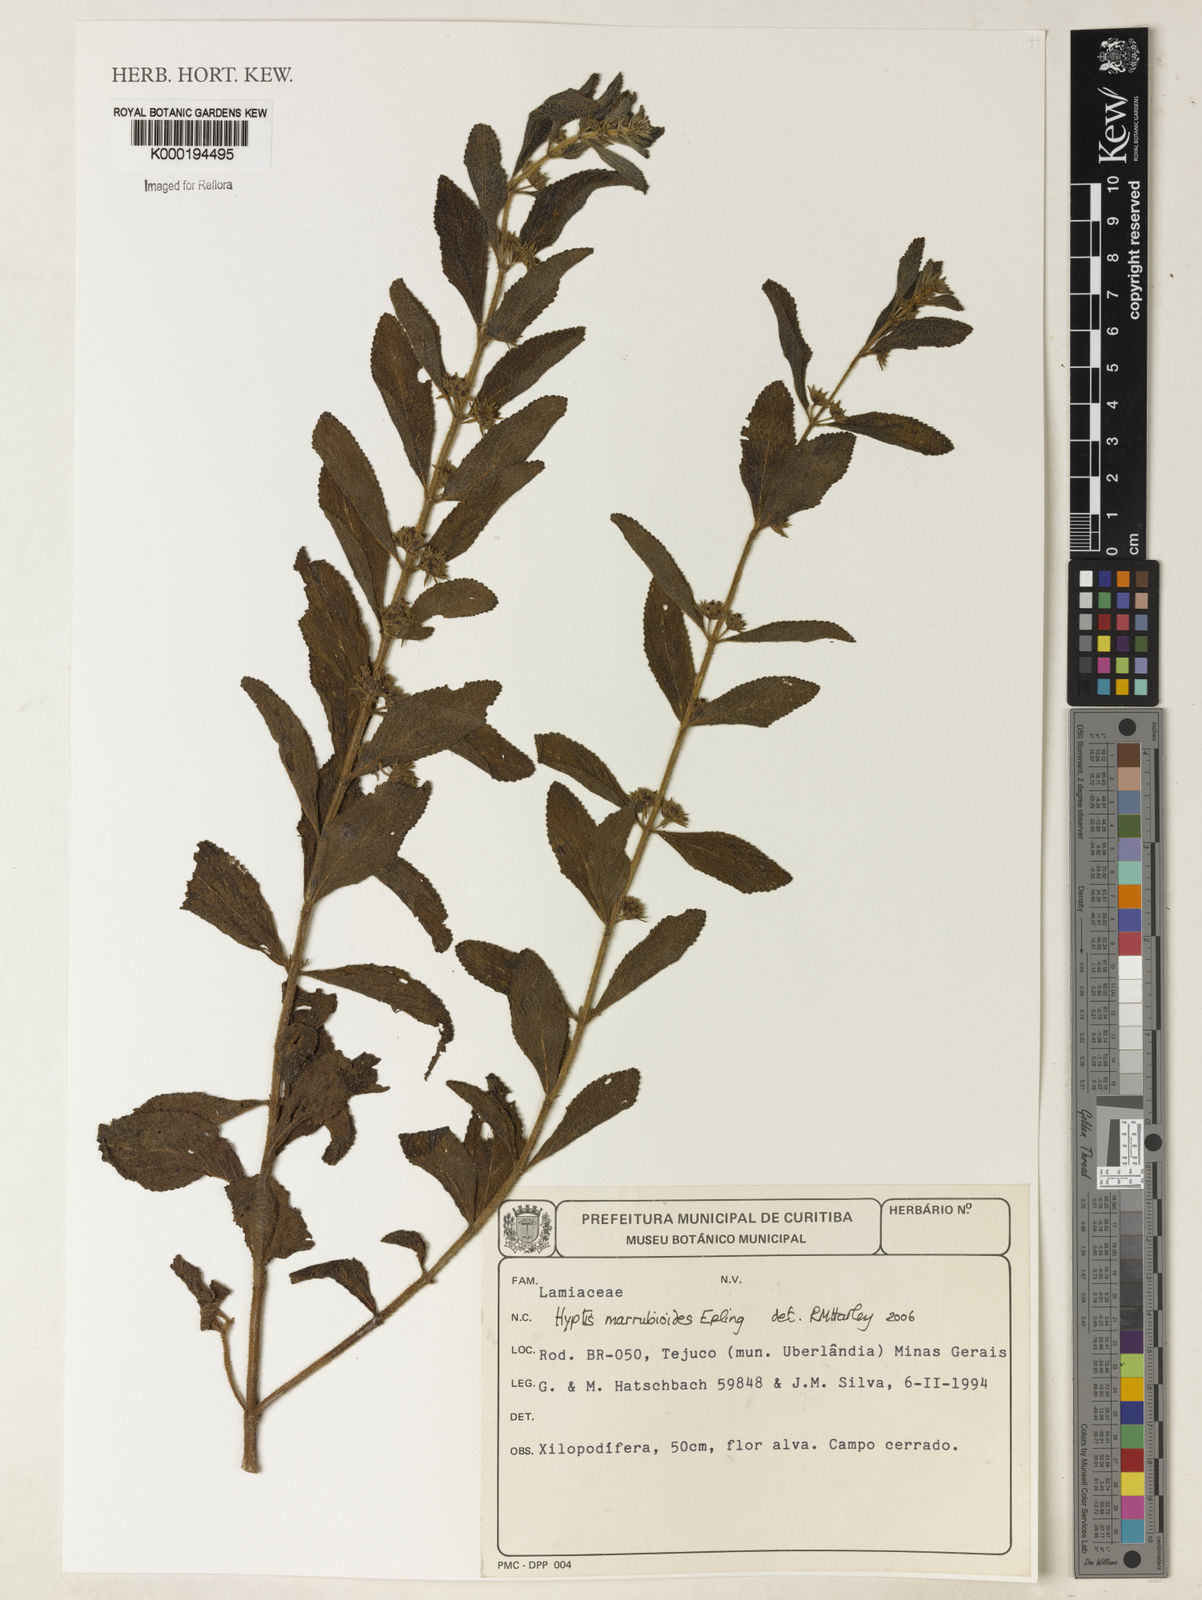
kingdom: Plantae
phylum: Tracheophyta
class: Magnoliopsida
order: Lamiales
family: Lamiaceae
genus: Hyptis
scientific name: Hyptis marrubioides
